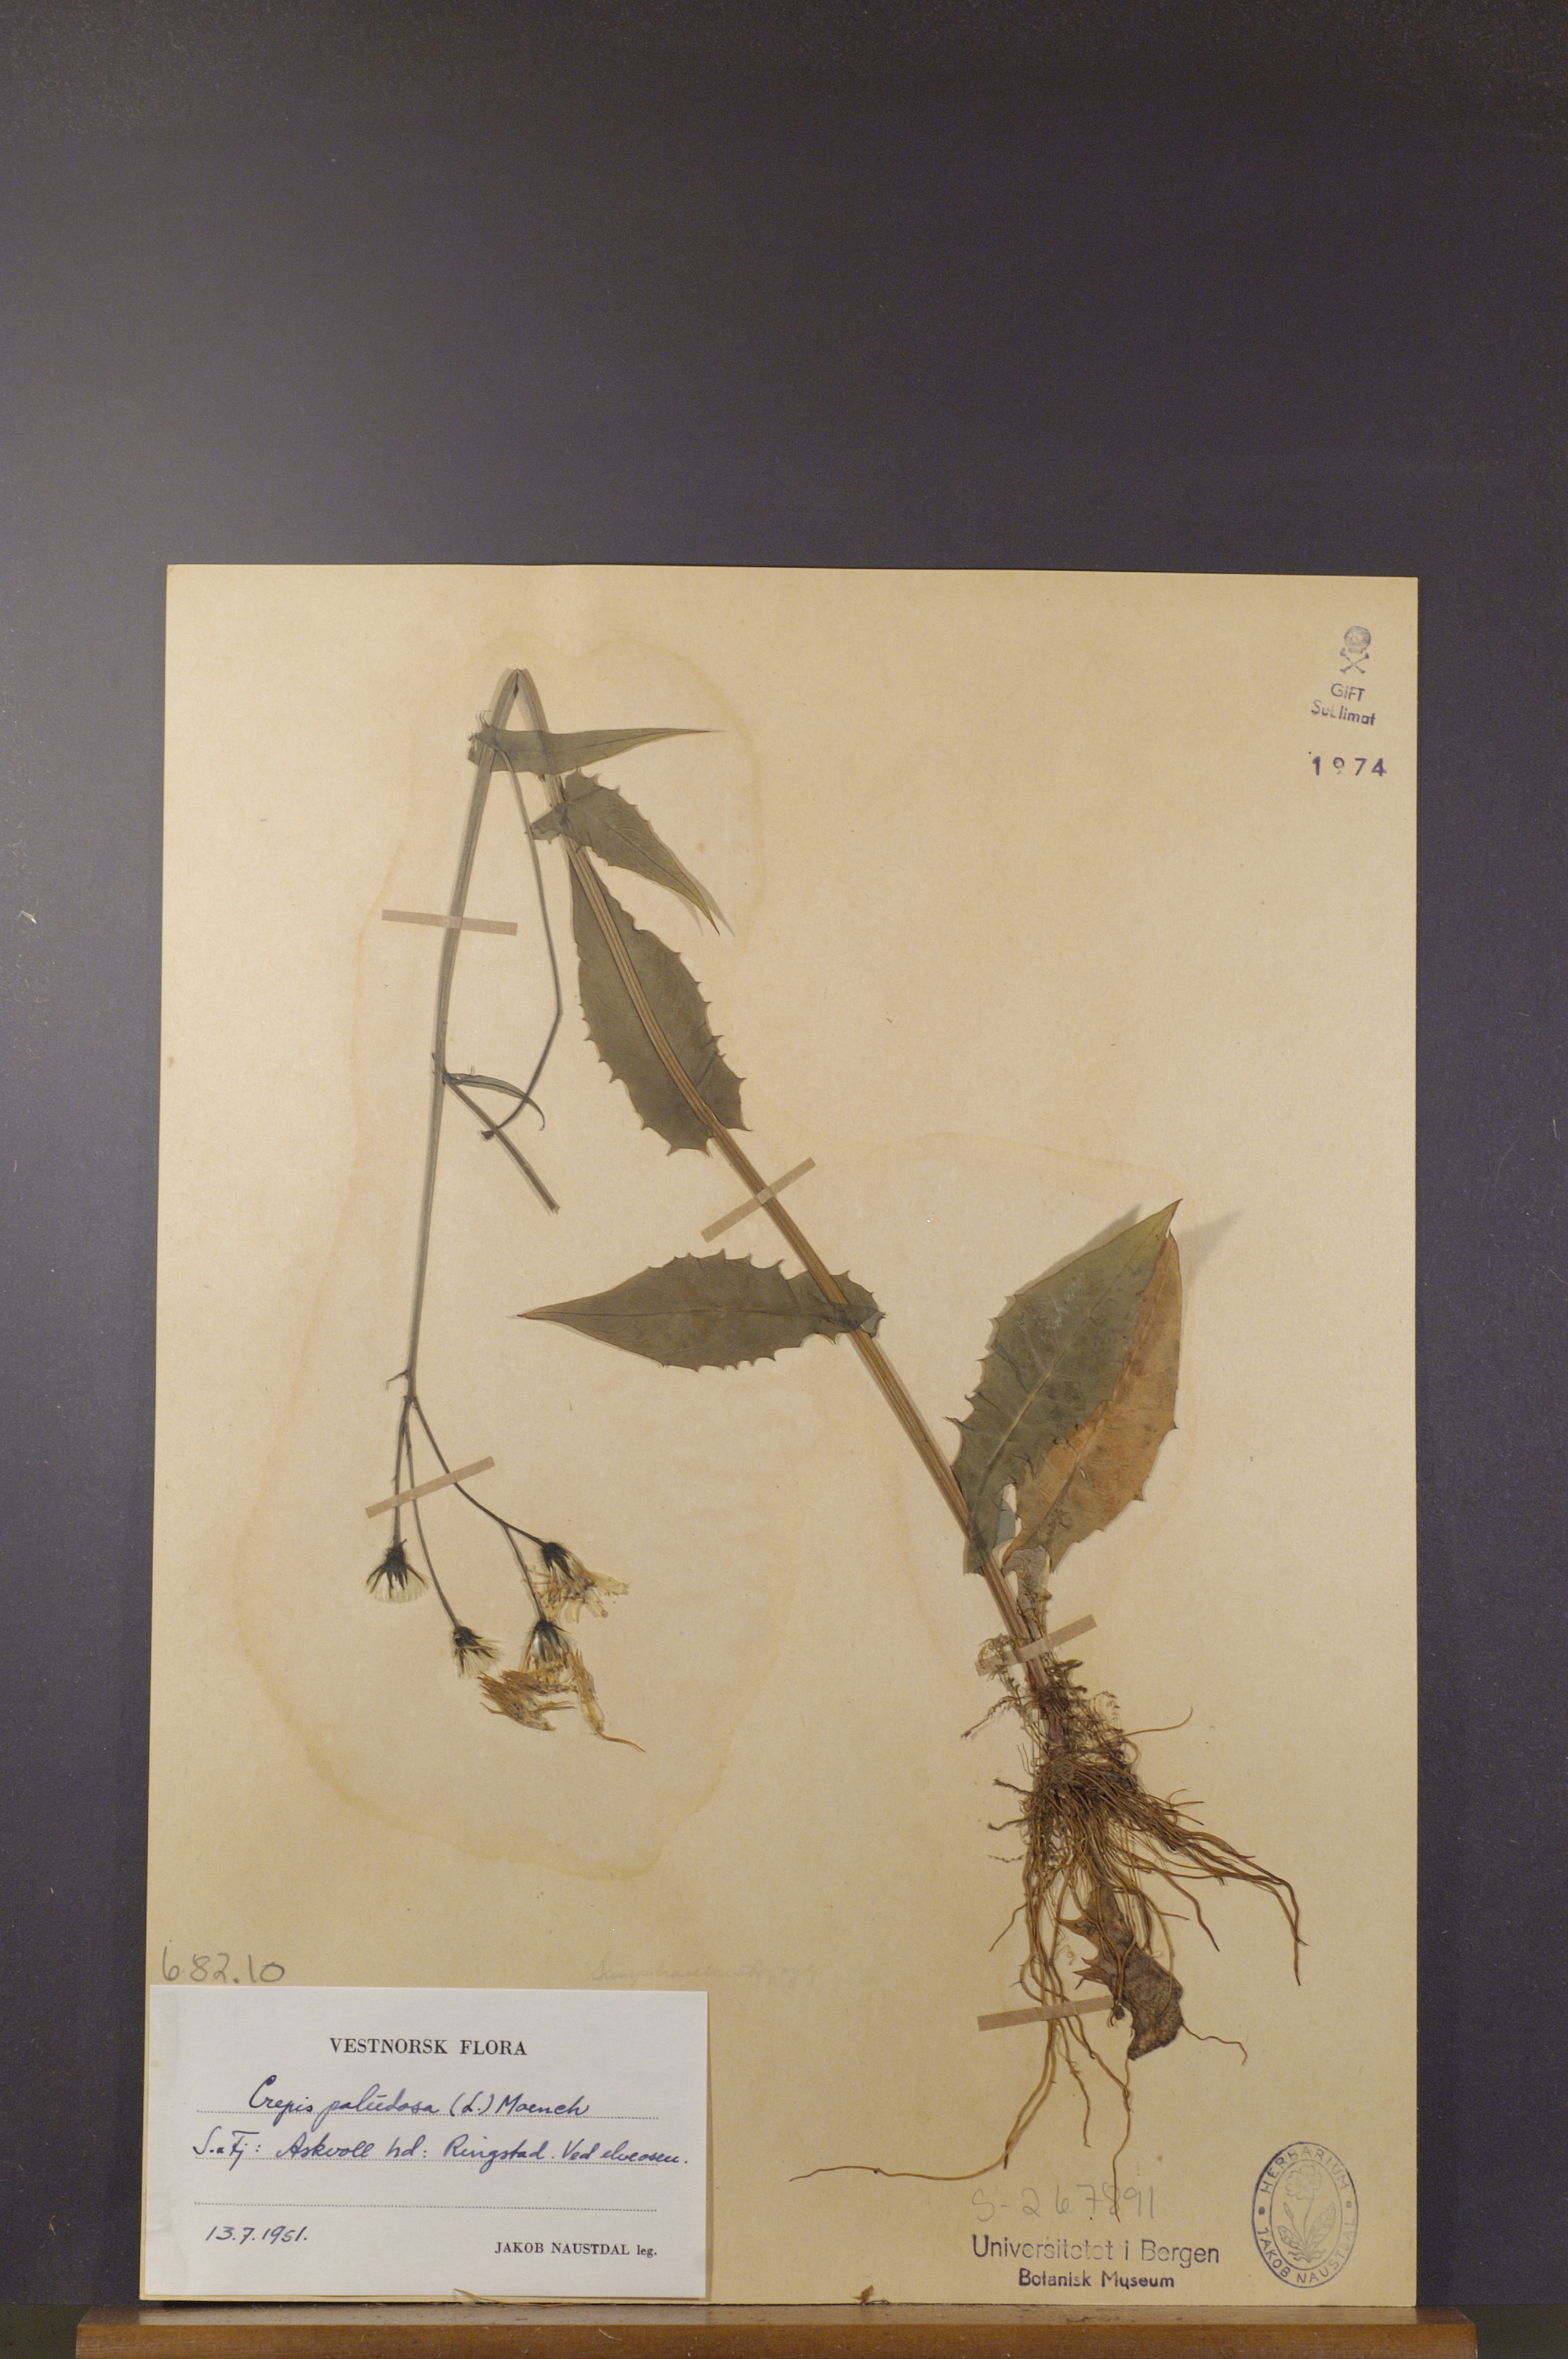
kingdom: Plantae
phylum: Tracheophyta
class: Magnoliopsida
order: Asterales
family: Asteraceae
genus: Crepis
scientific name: Crepis paludosa
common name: Marsh hawk's-beard
